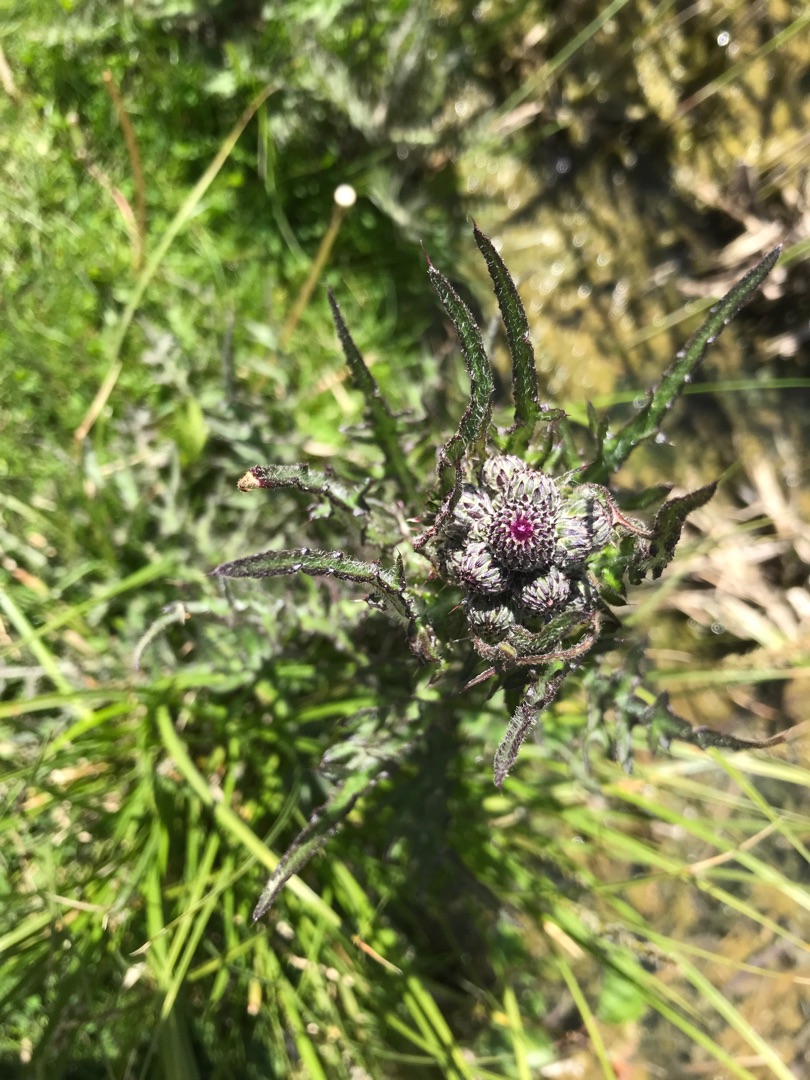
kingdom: Plantae
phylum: Tracheophyta
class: Magnoliopsida
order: Asterales
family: Asteraceae
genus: Cirsium
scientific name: Cirsium palustre
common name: Kær-tidsel
